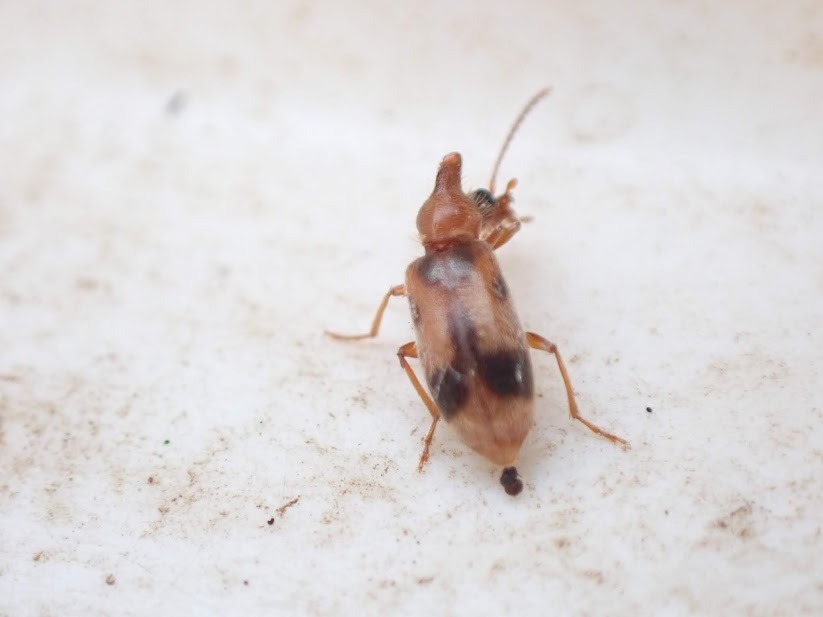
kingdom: Animalia
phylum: Arthropoda
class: Insecta
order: Coleoptera
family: Anthicidae
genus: Notoxus
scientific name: Notoxus monoceros
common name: Enhjørning
